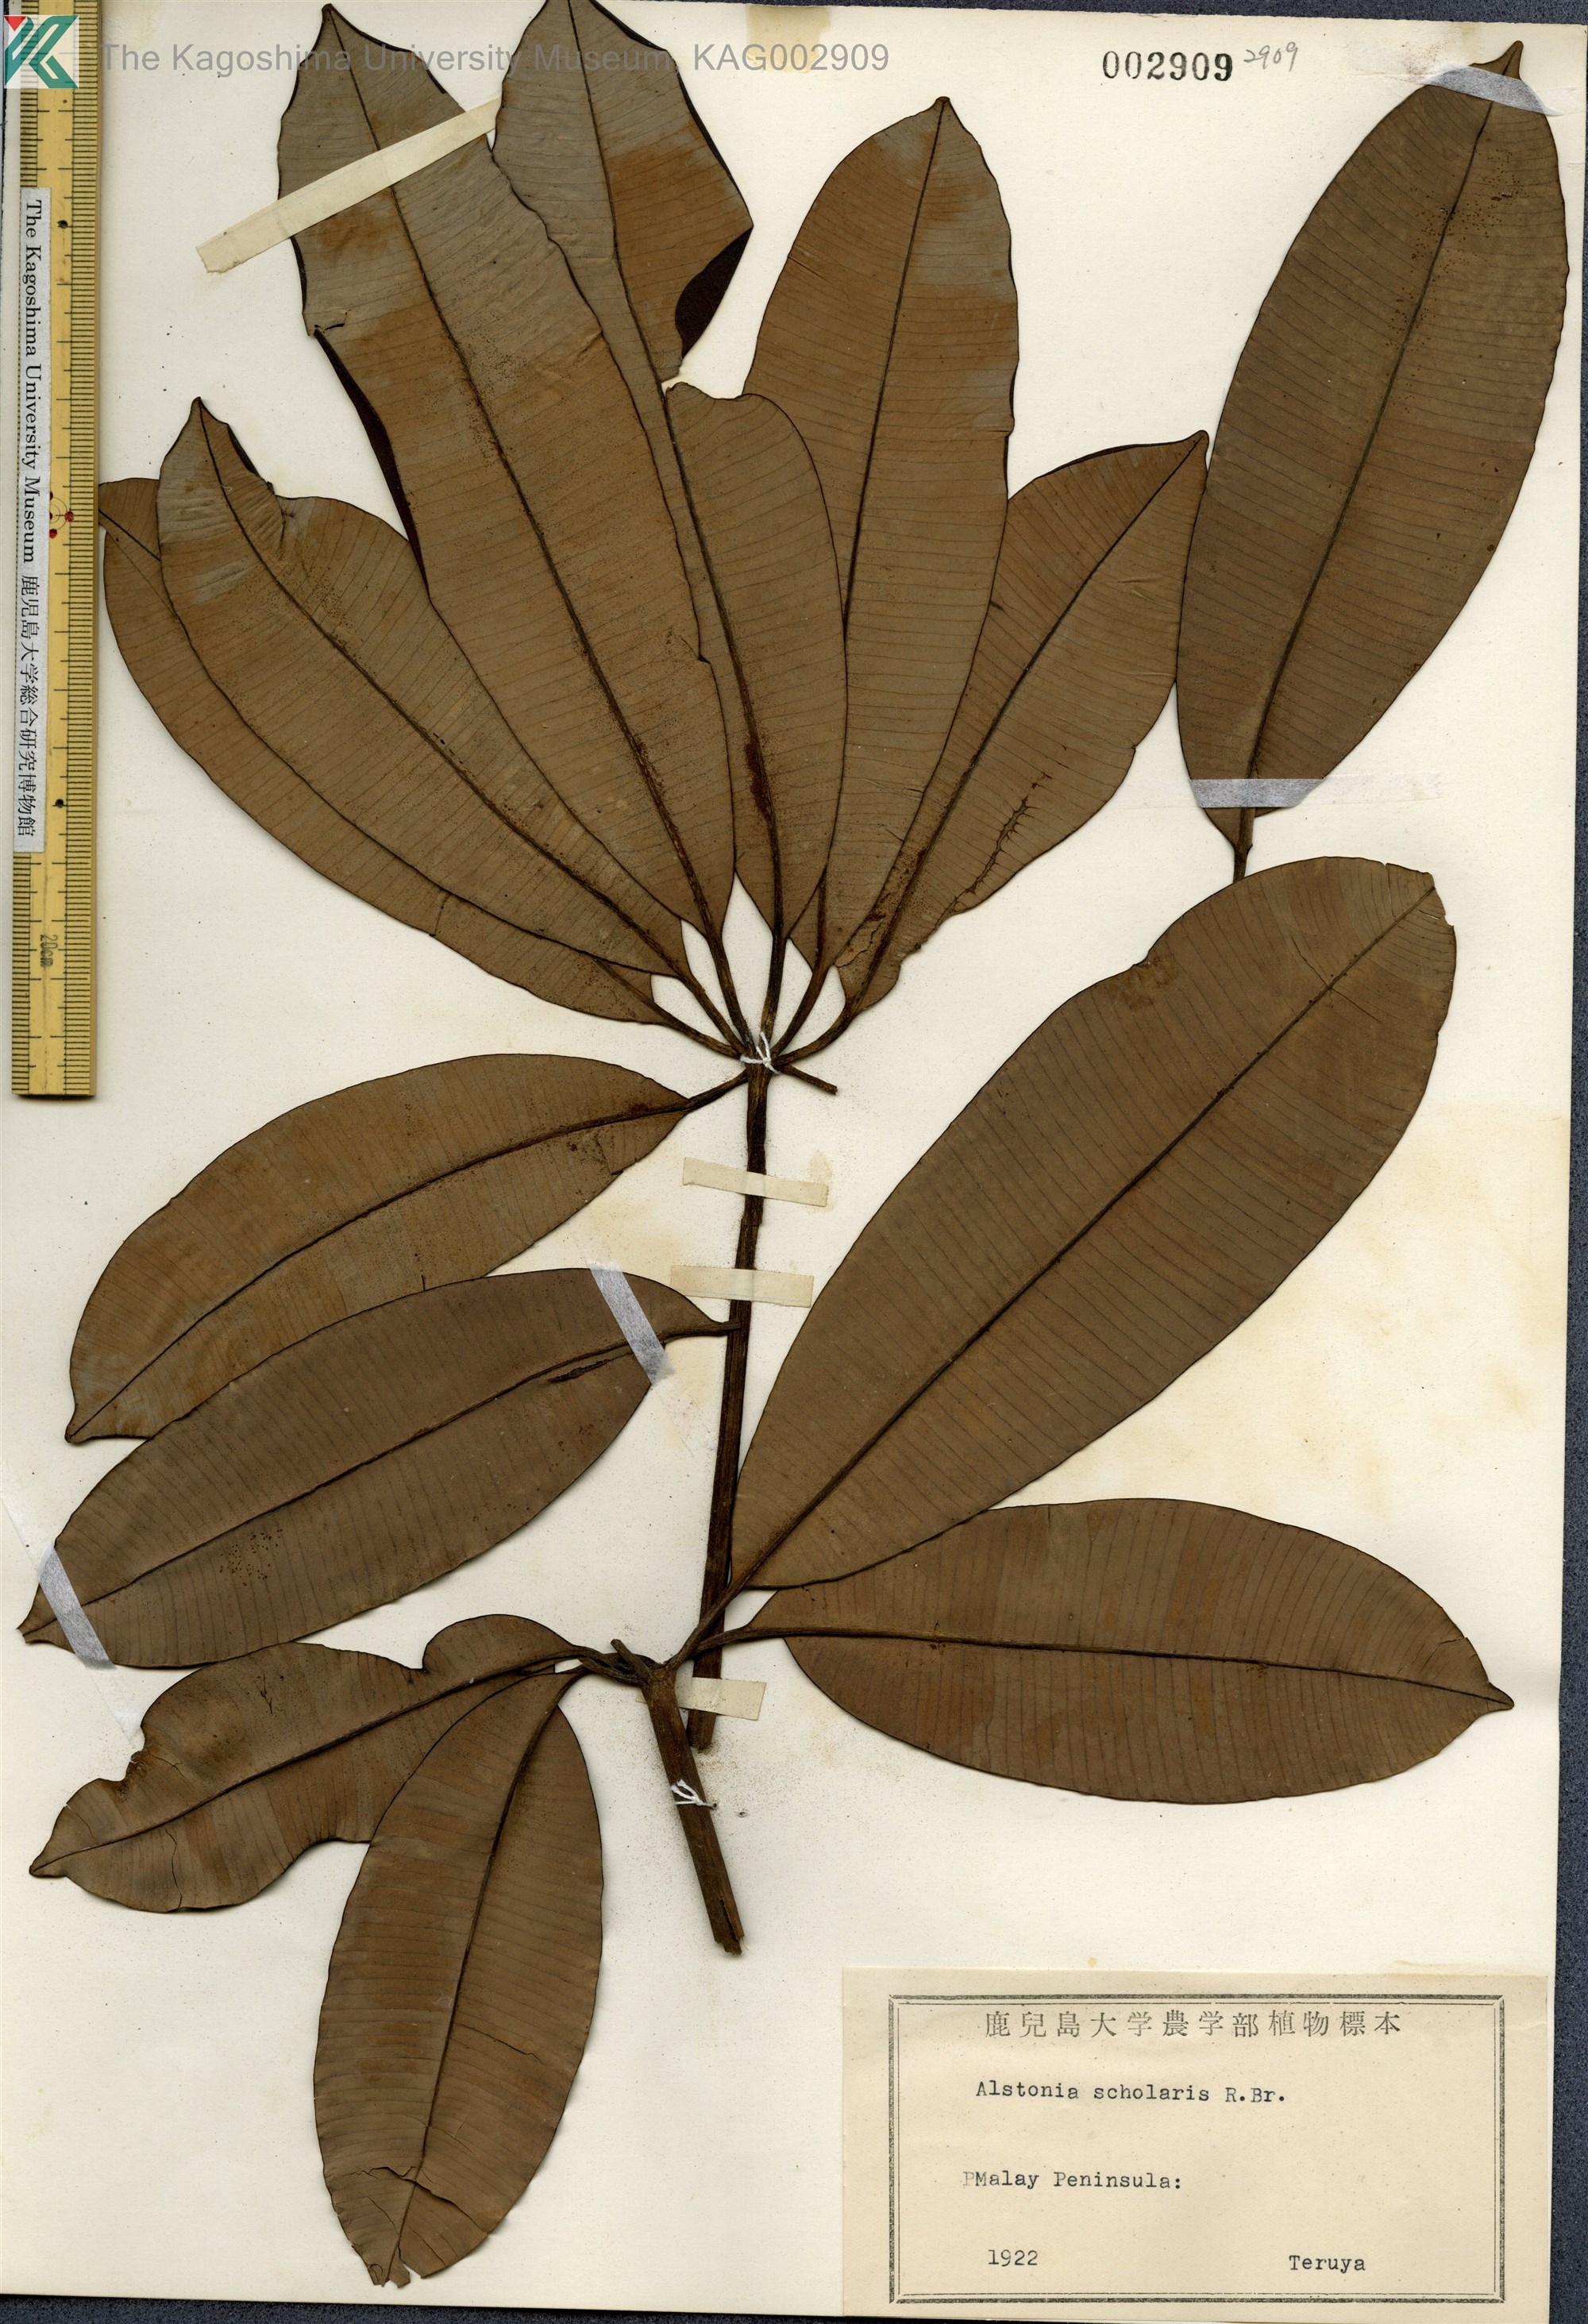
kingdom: Plantae
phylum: Tracheophyta
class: Magnoliopsida
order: Gentianales
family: Apocynaceae
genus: Alstonia
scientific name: Alstonia scholaris
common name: White cheesewood
